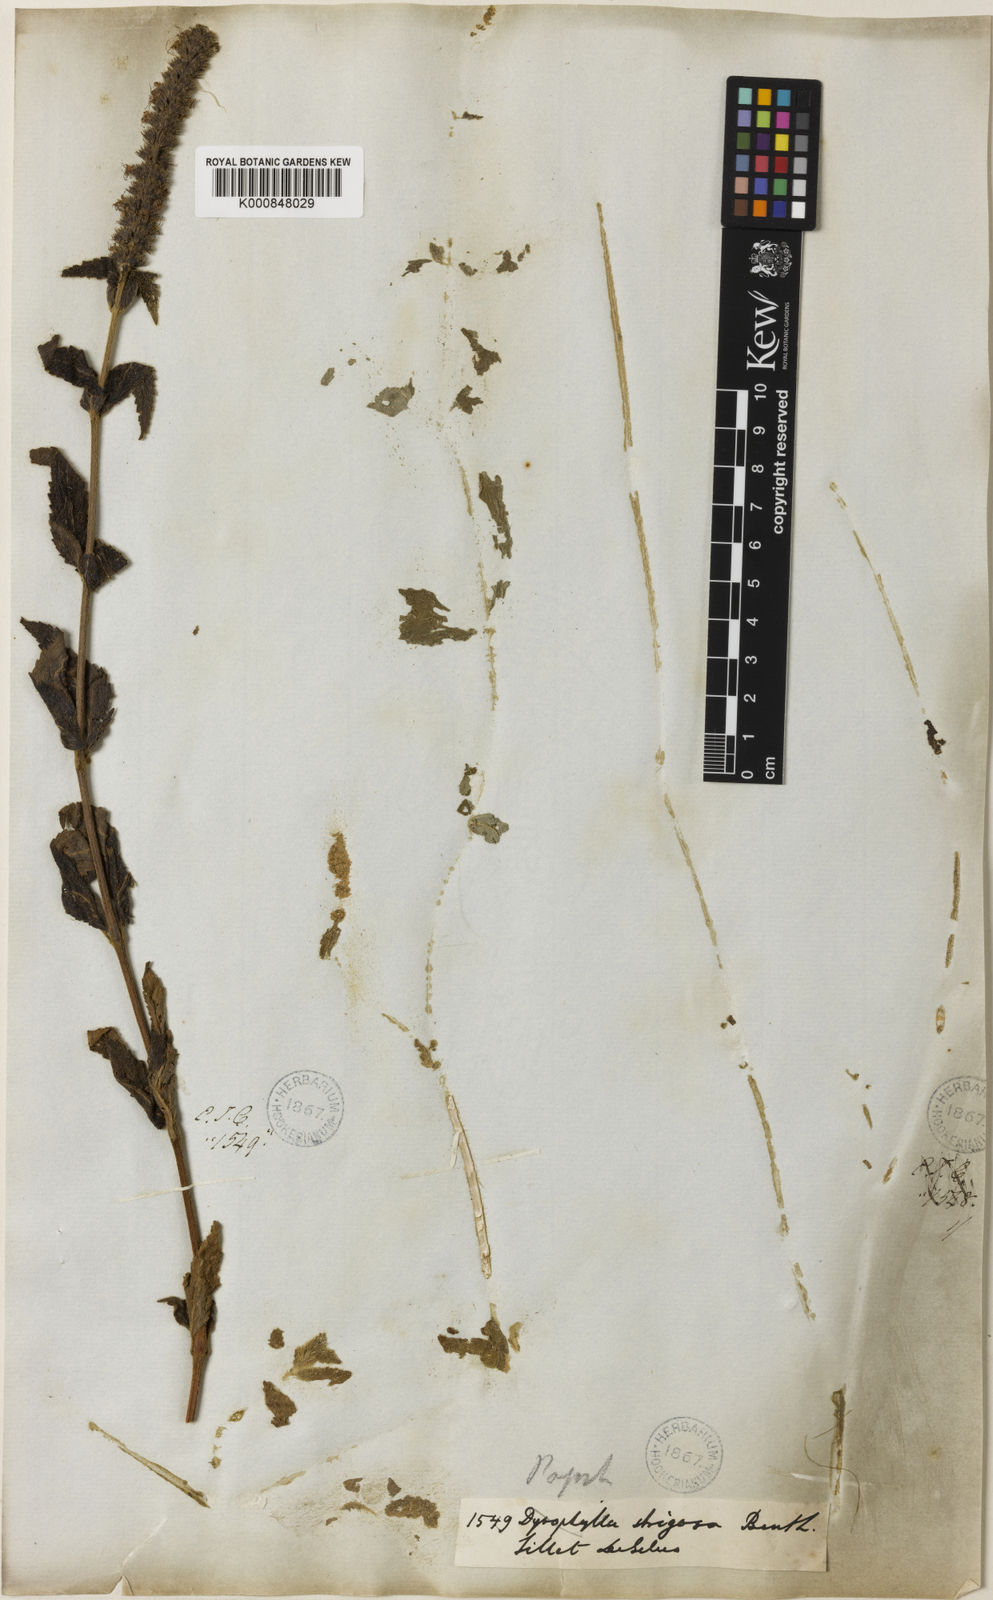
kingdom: Plantae
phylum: Tracheophyta
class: Magnoliopsida
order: Lamiales
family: Lamiaceae
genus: Pogostemon
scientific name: Pogostemon strigosus
